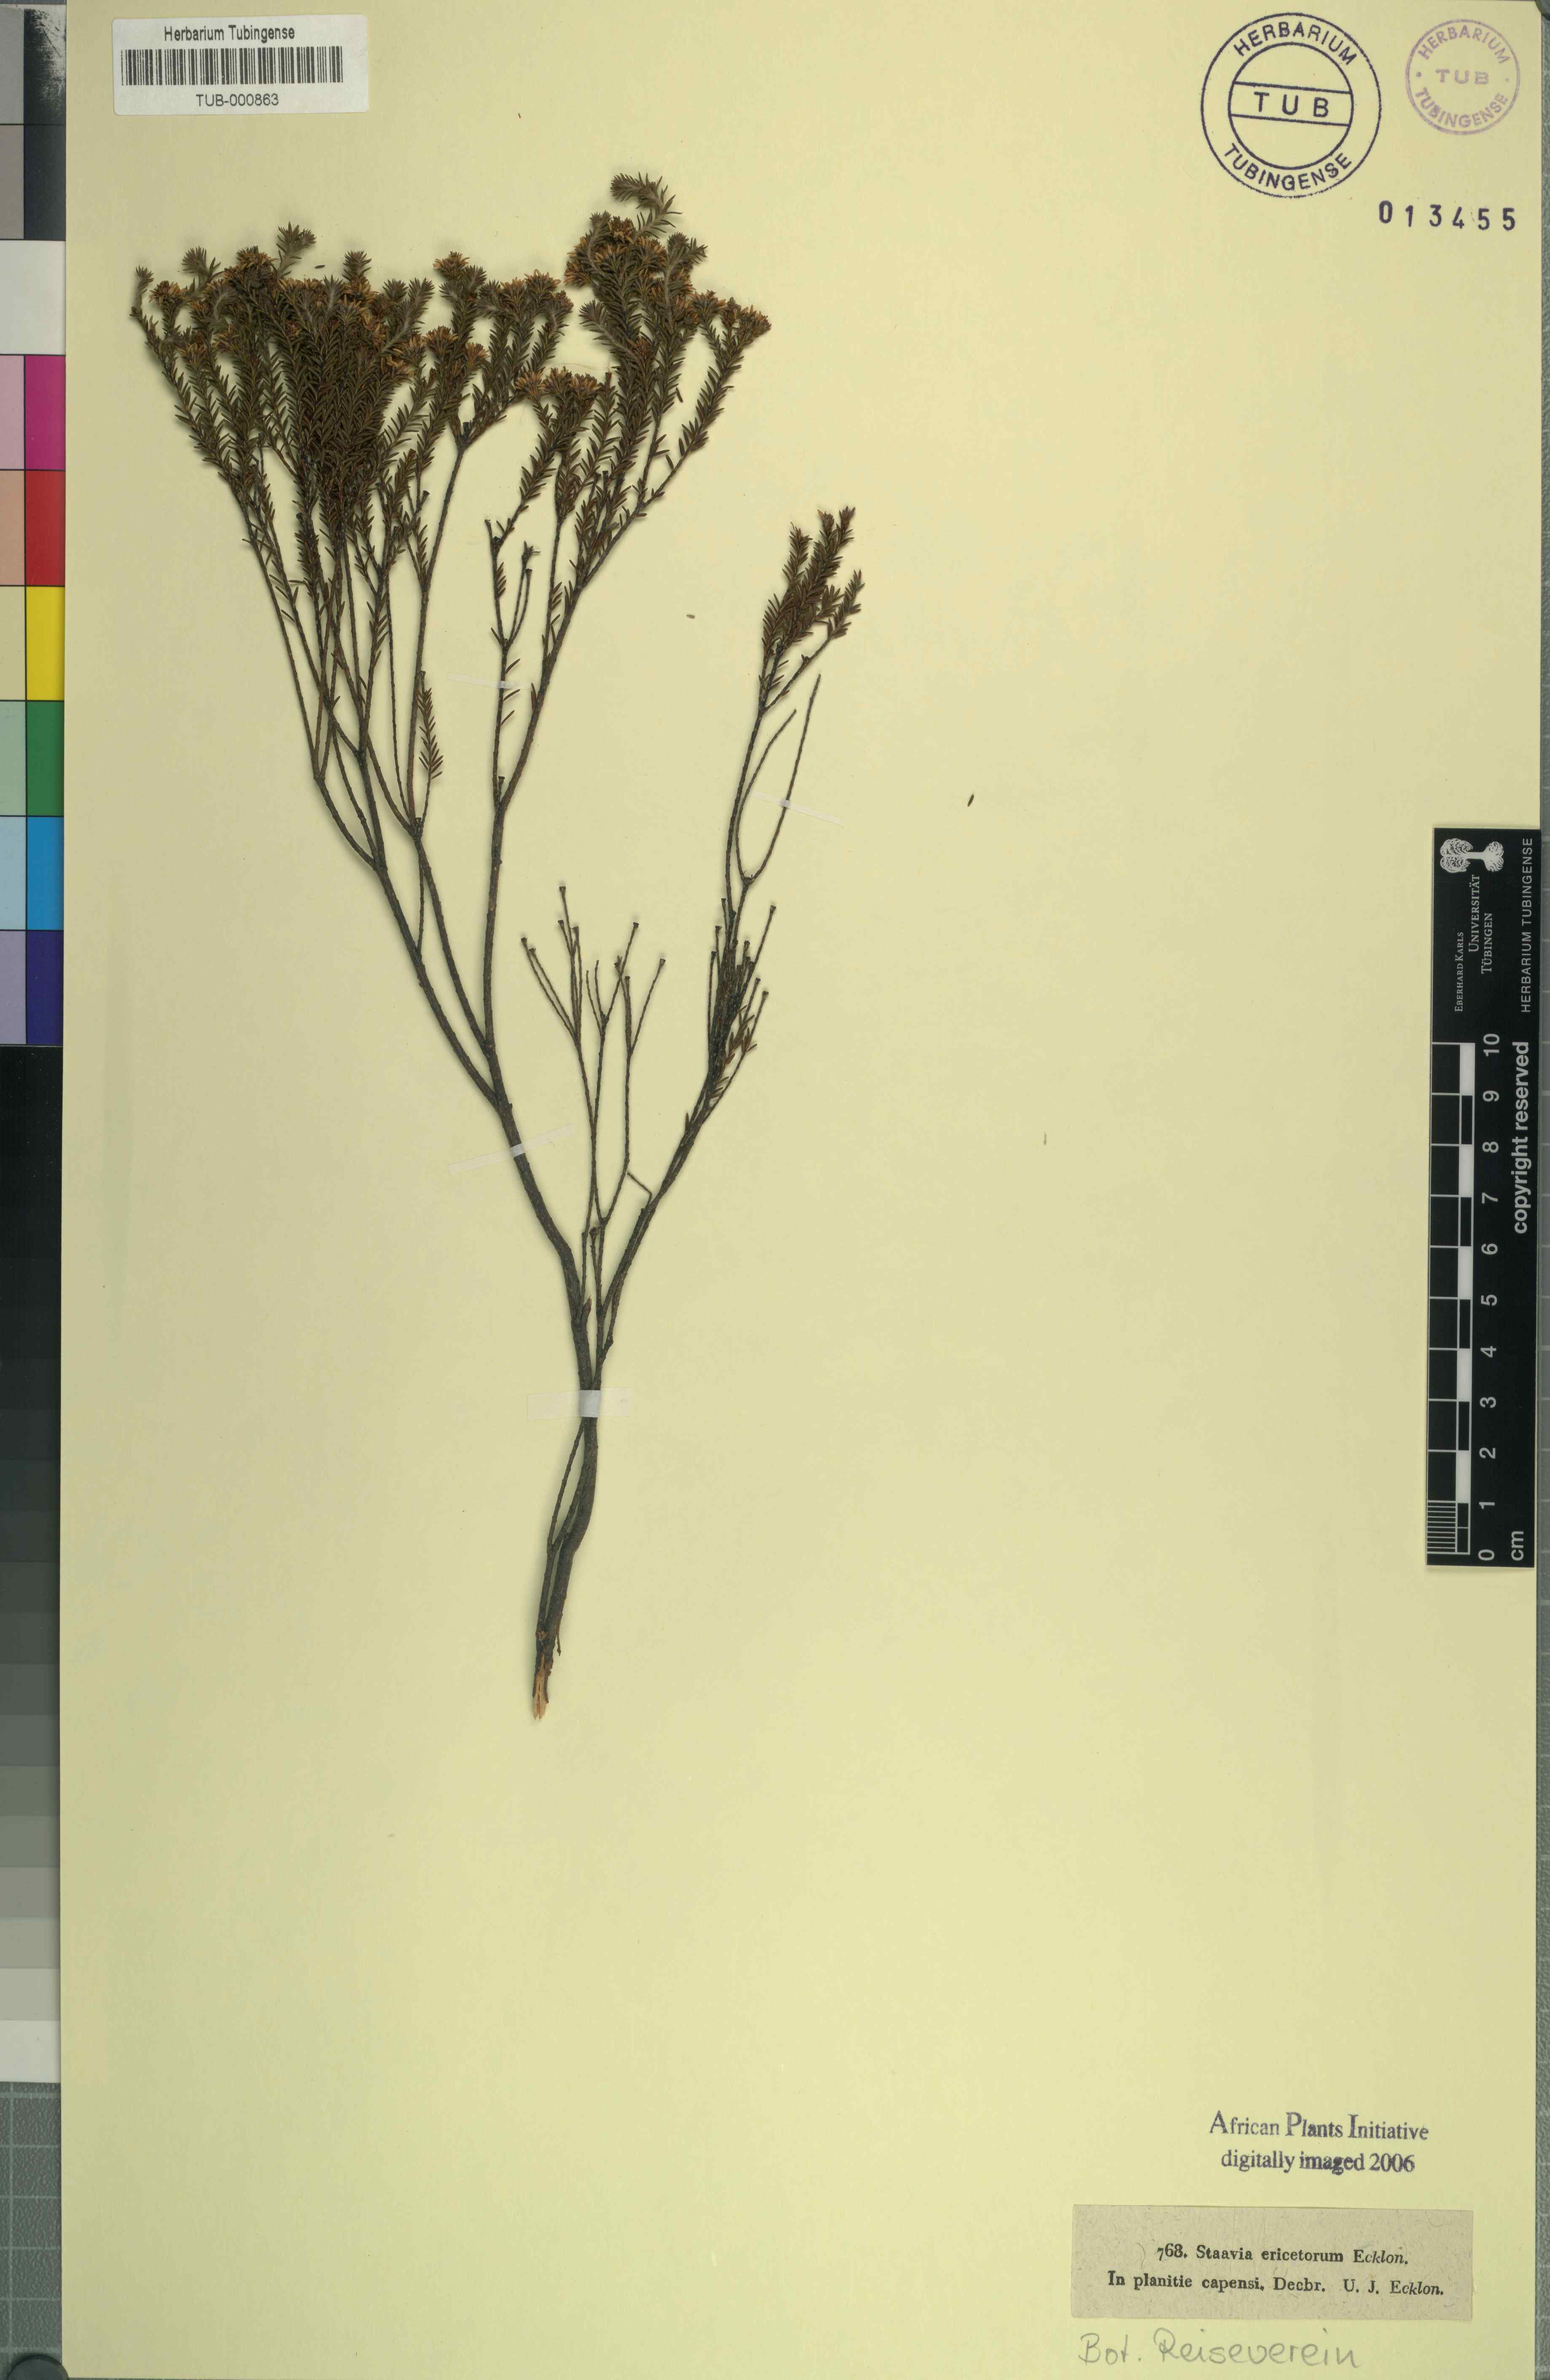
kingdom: Plantae
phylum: Tracheophyta
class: Magnoliopsida
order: Bruniales
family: Bruniaceae
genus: Staavia
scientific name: Staavia radiata
